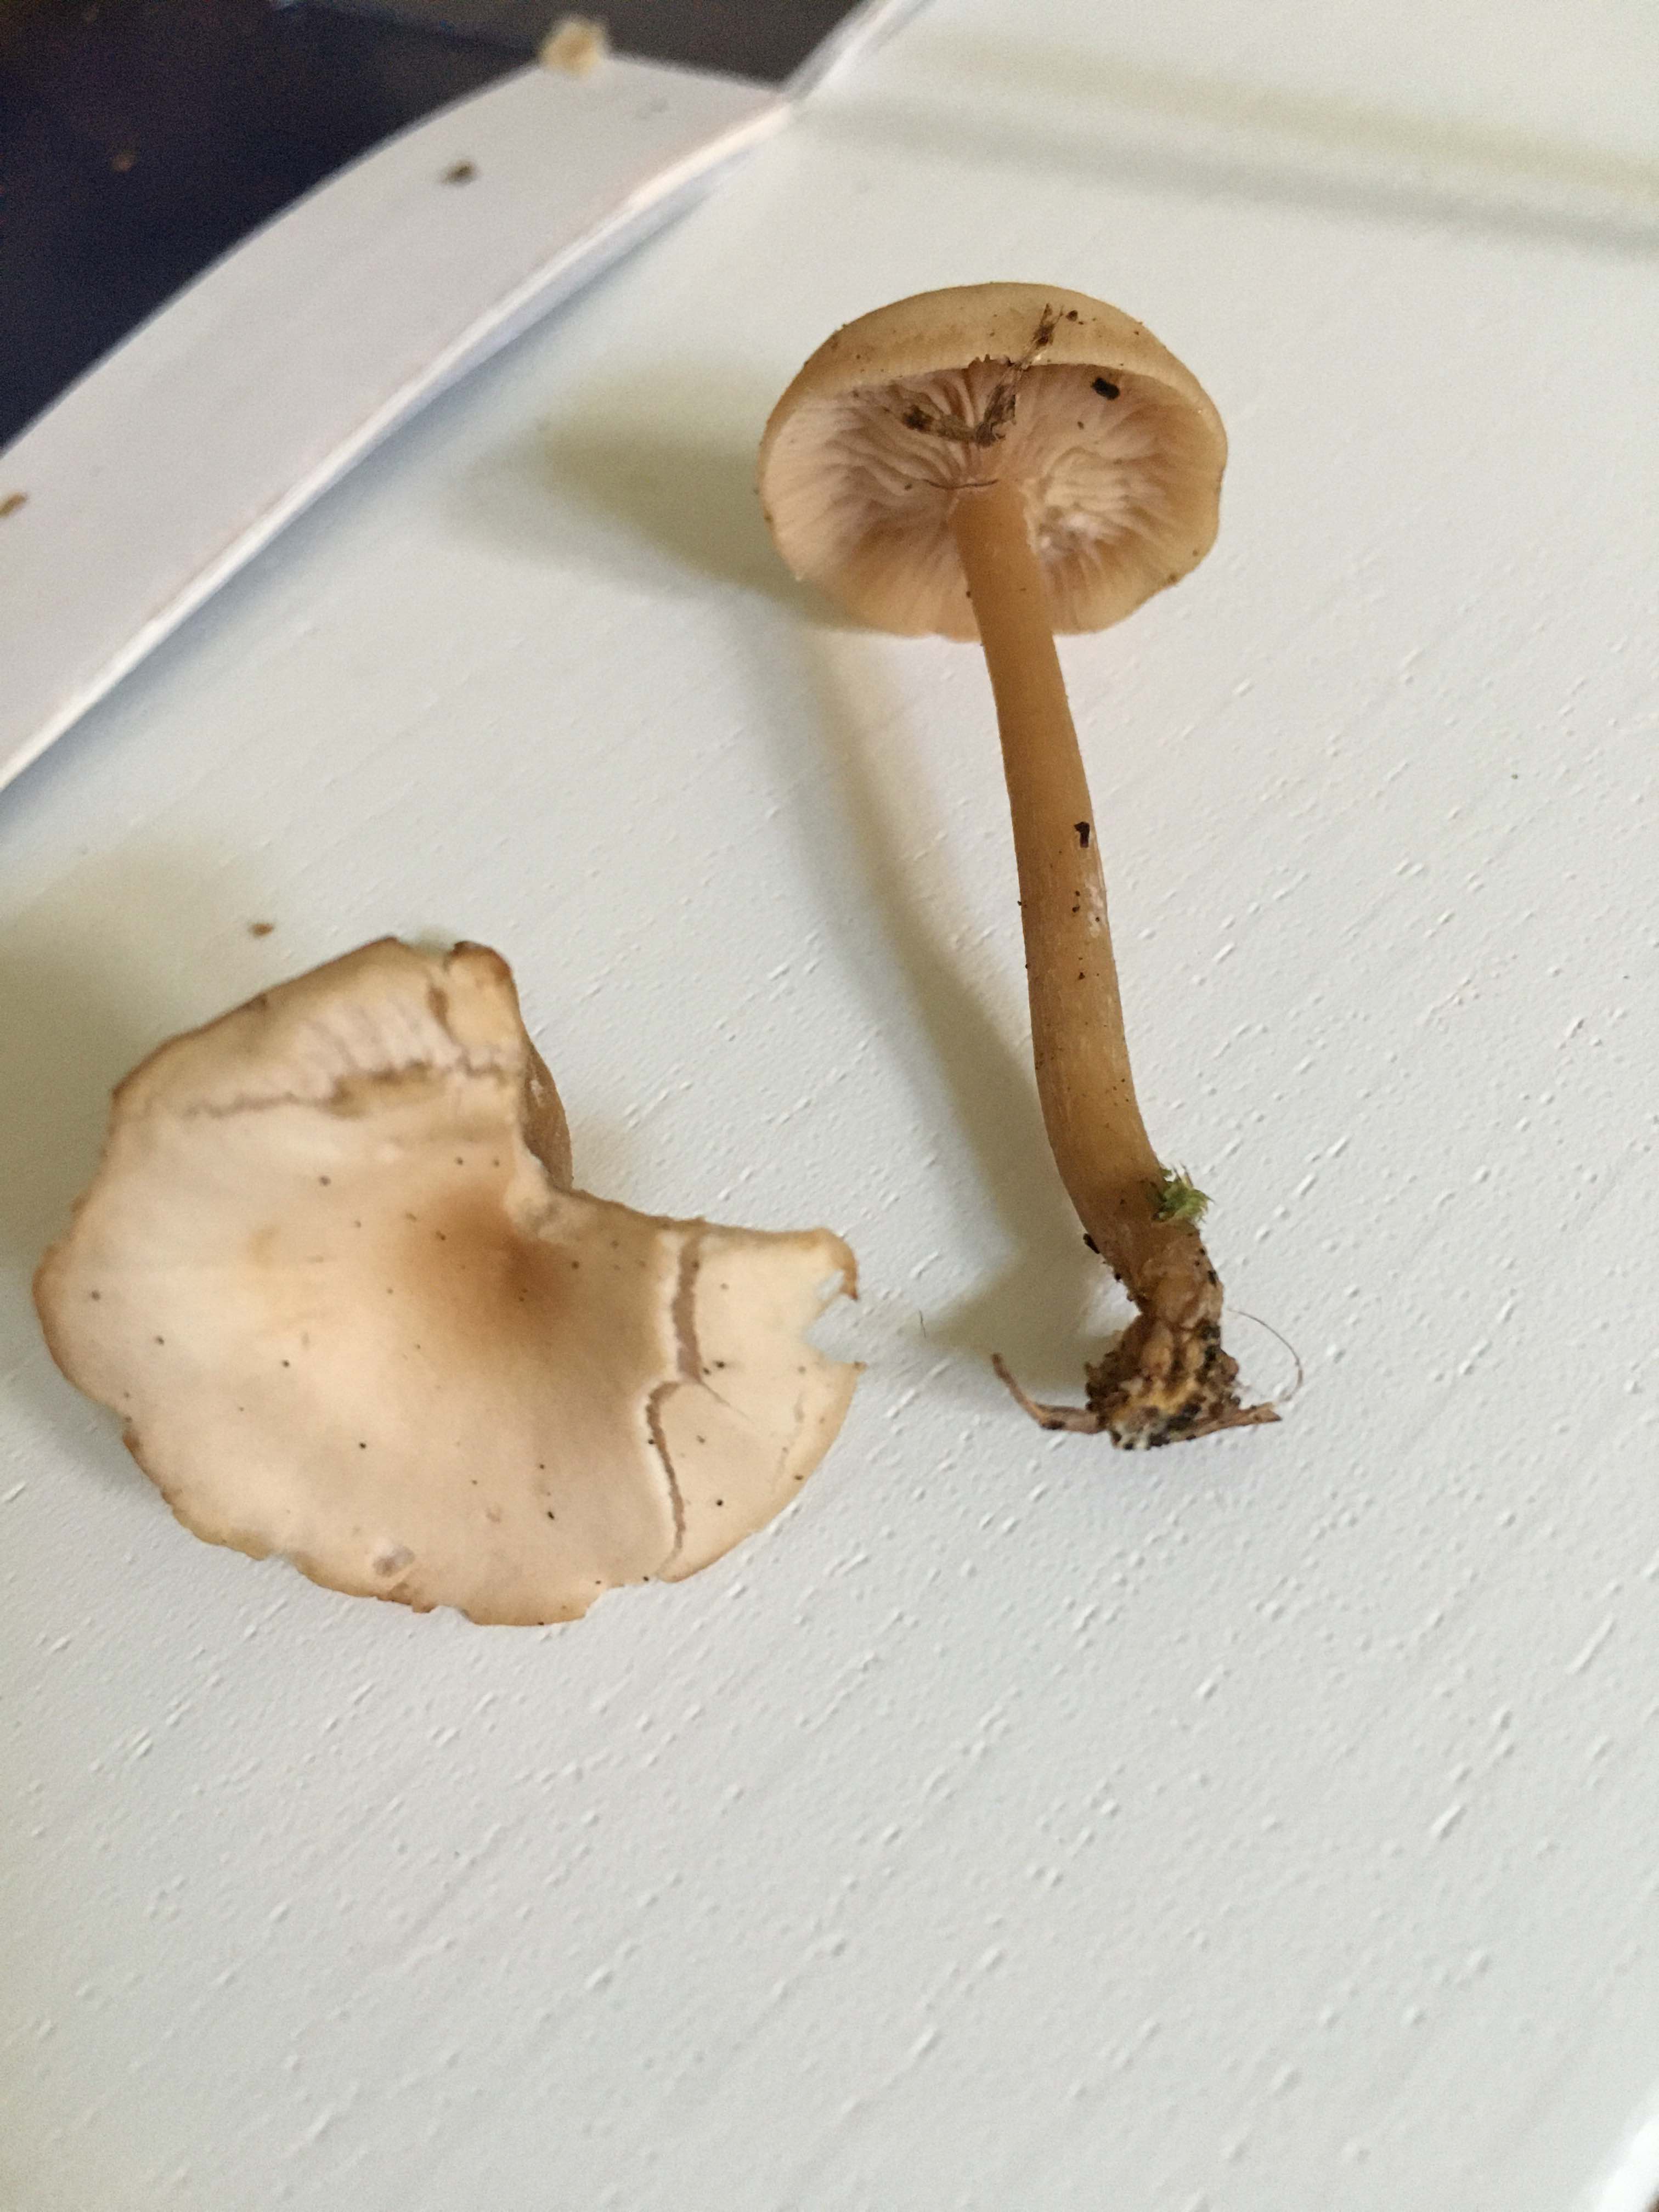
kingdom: Fungi
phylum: Basidiomycota
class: Agaricomycetes
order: Agaricales
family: Tricholomataceae
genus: Clitocybe
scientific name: Clitocybe fragrans
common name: vellugtende tragthat
